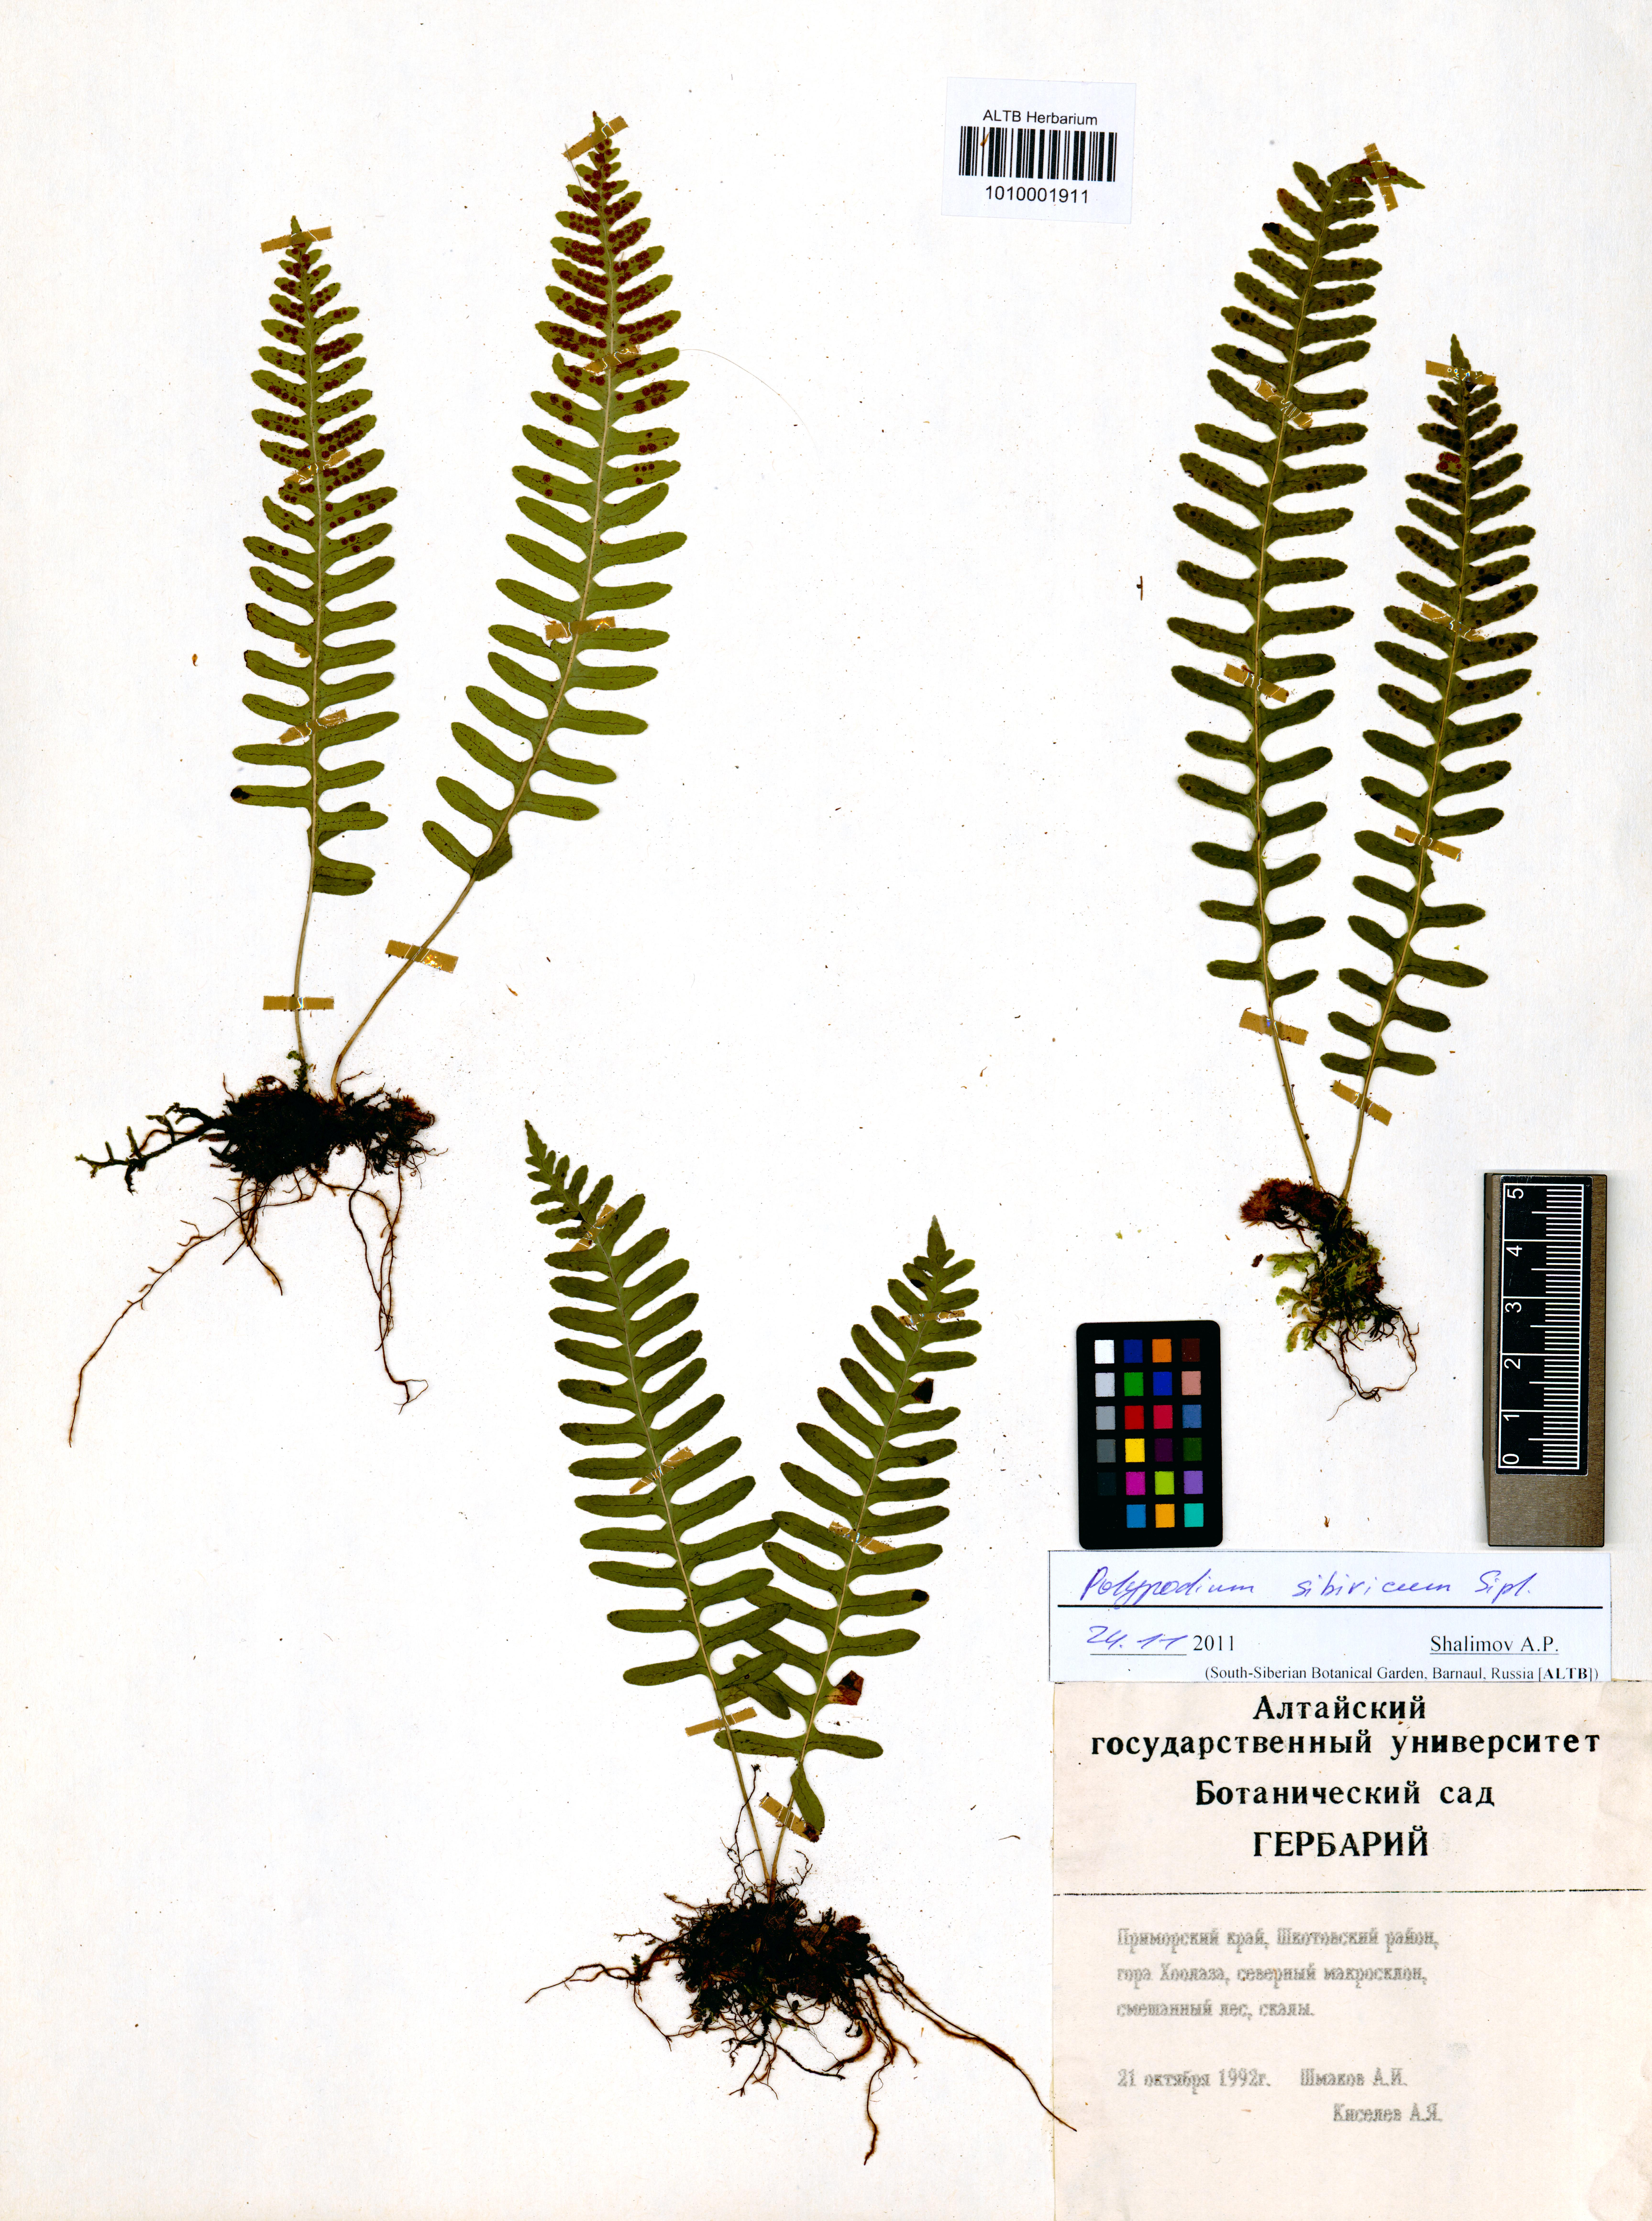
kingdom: Plantae
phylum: Tracheophyta
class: Polypodiopsida
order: Polypodiales
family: Polypodiaceae
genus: Polypodium
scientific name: Polypodium sibiricum
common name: Siberian polypody
